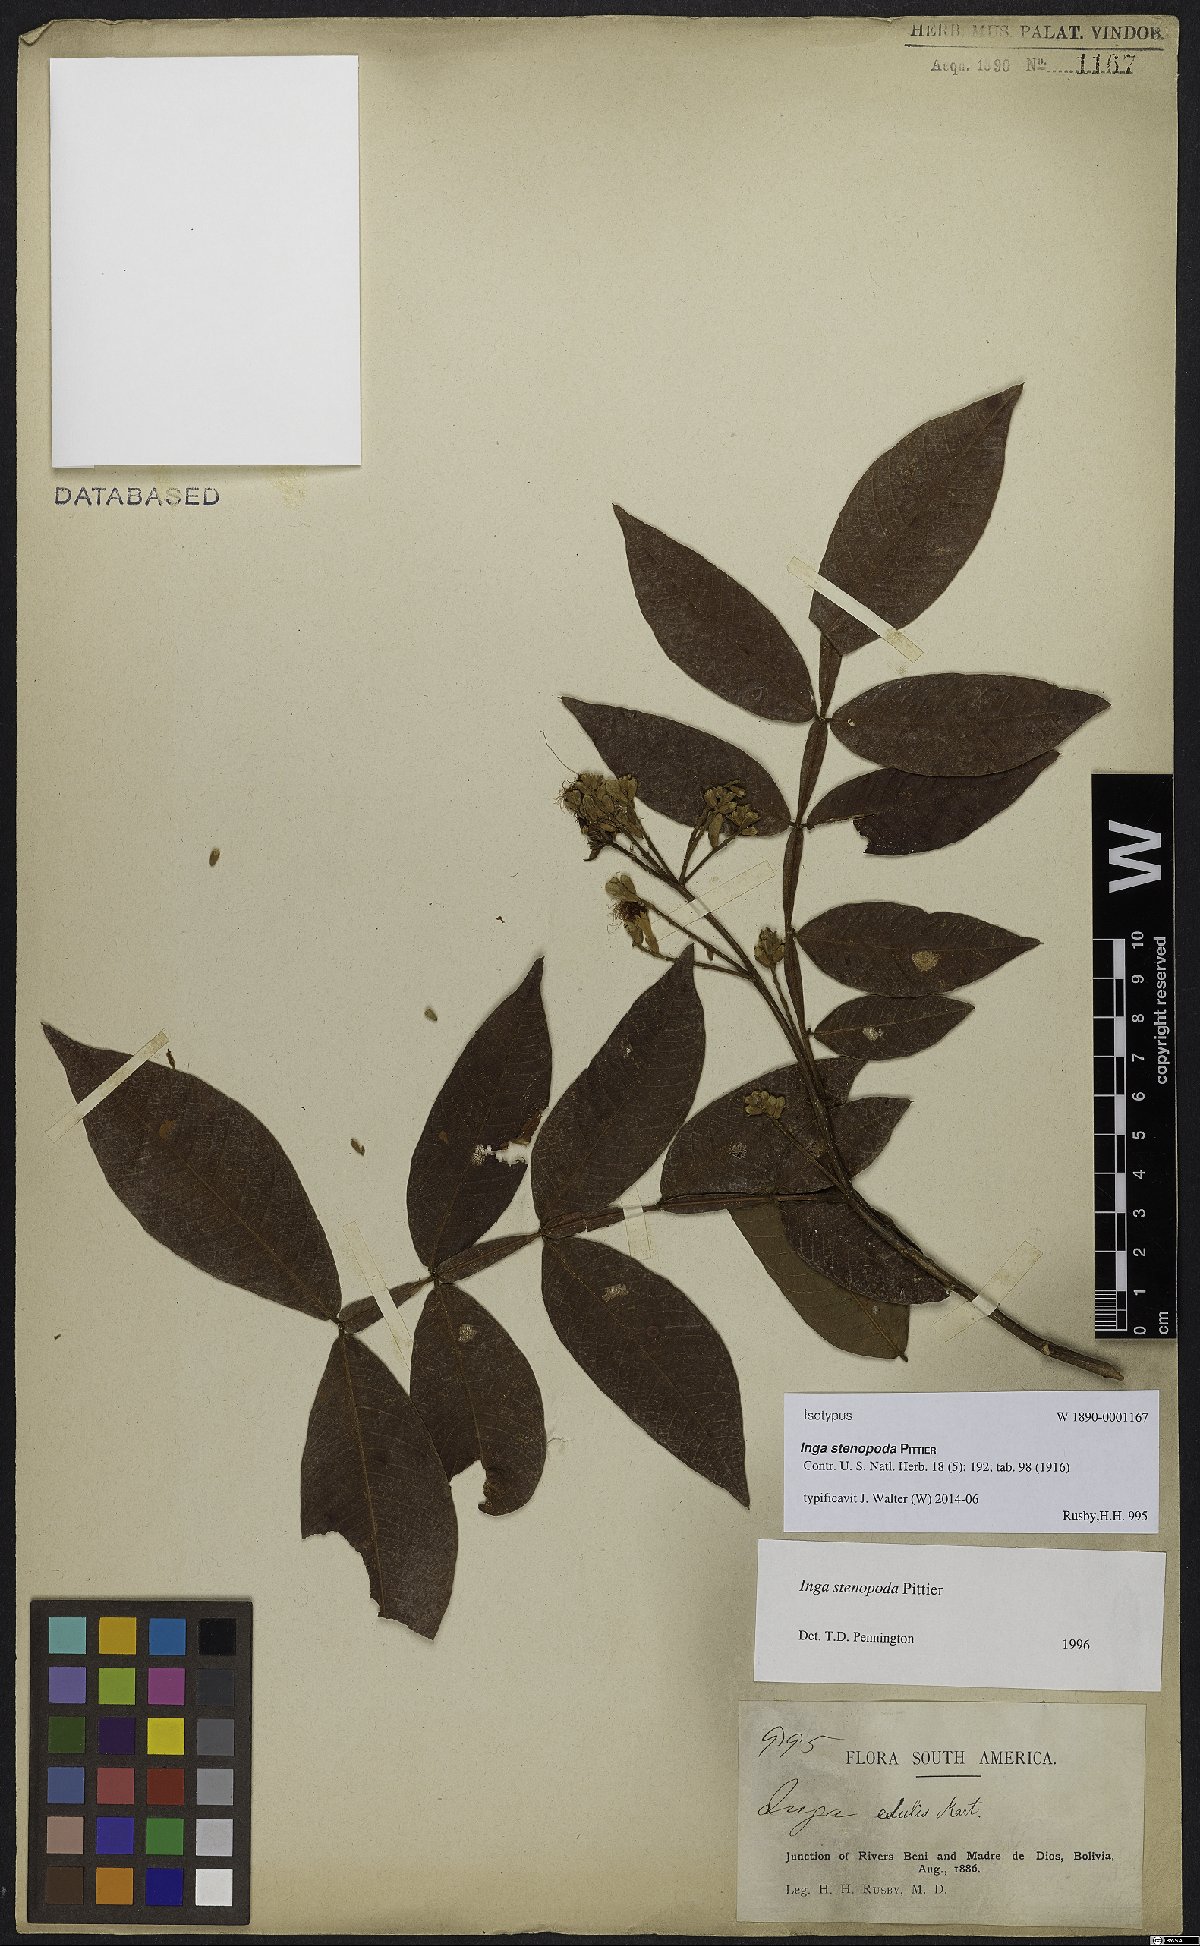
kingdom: Plantae
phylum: Tracheophyta
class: Magnoliopsida
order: Fabales
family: Fabaceae
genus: Inga
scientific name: Inga stenopoda
